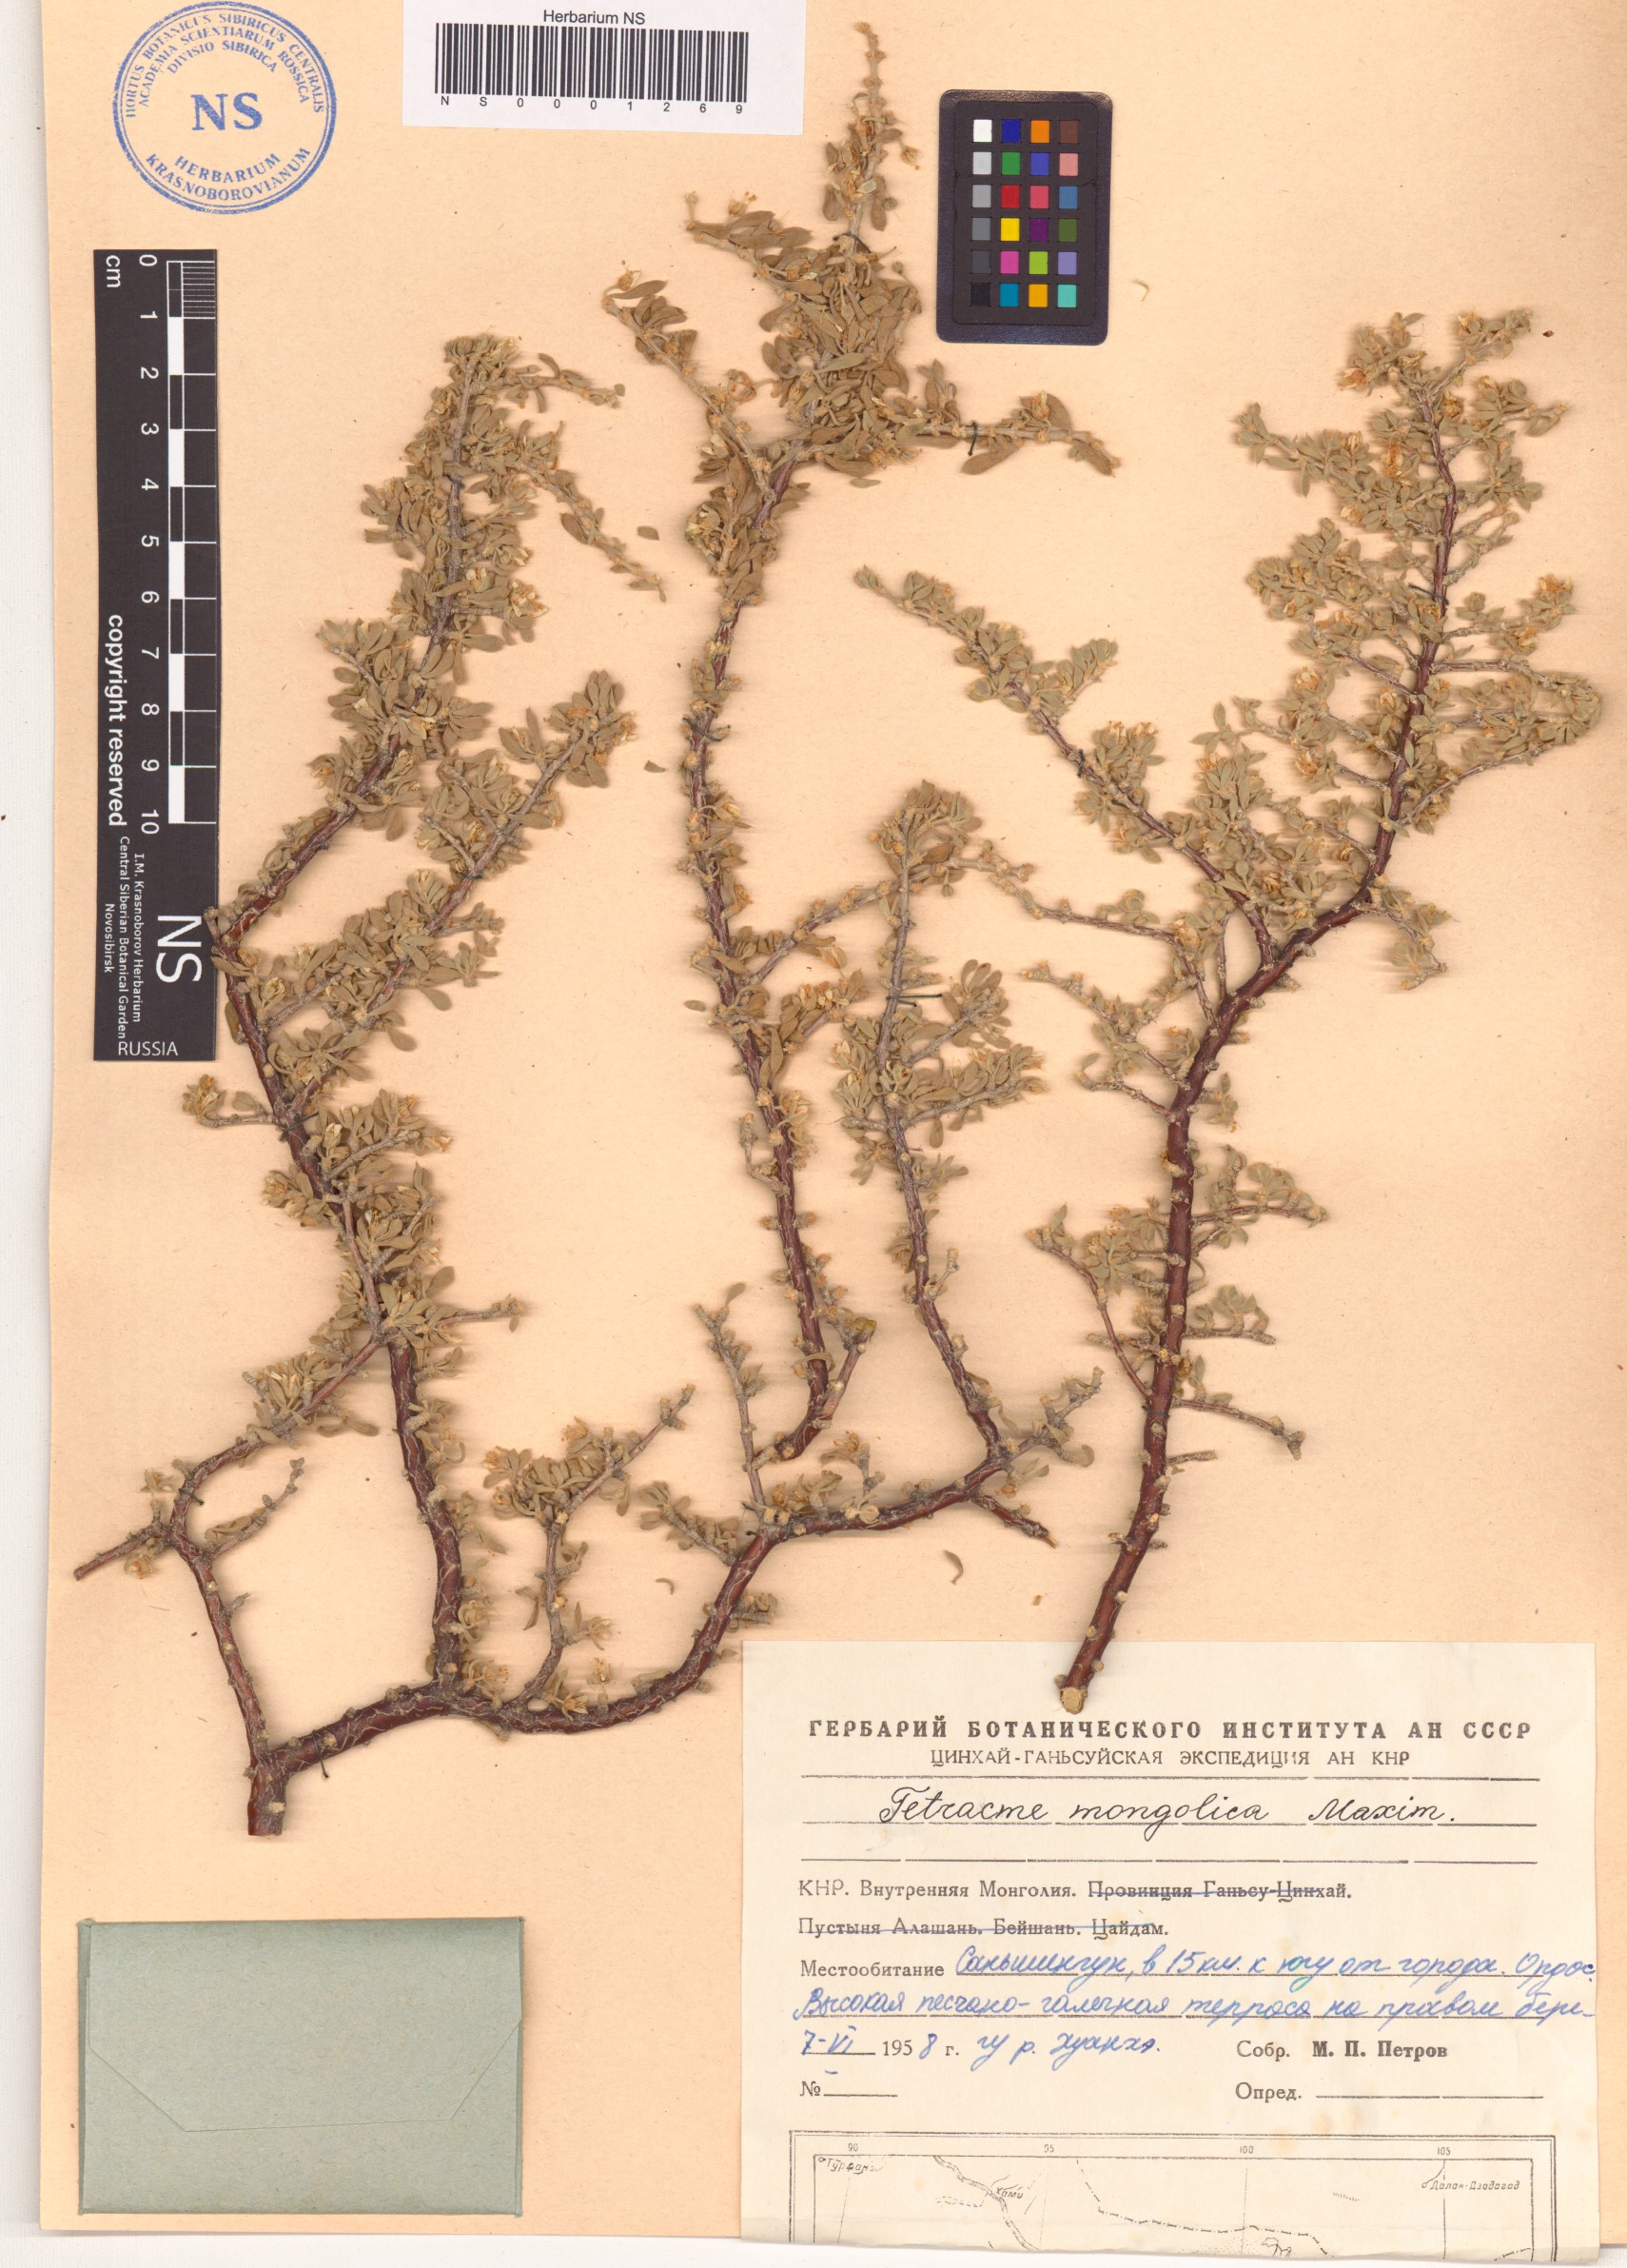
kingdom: Plantae
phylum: Tracheophyta
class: Magnoliopsida
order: Zygophyllales
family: Zygophyllaceae
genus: Tetraena
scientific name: Tetraena mongolica
